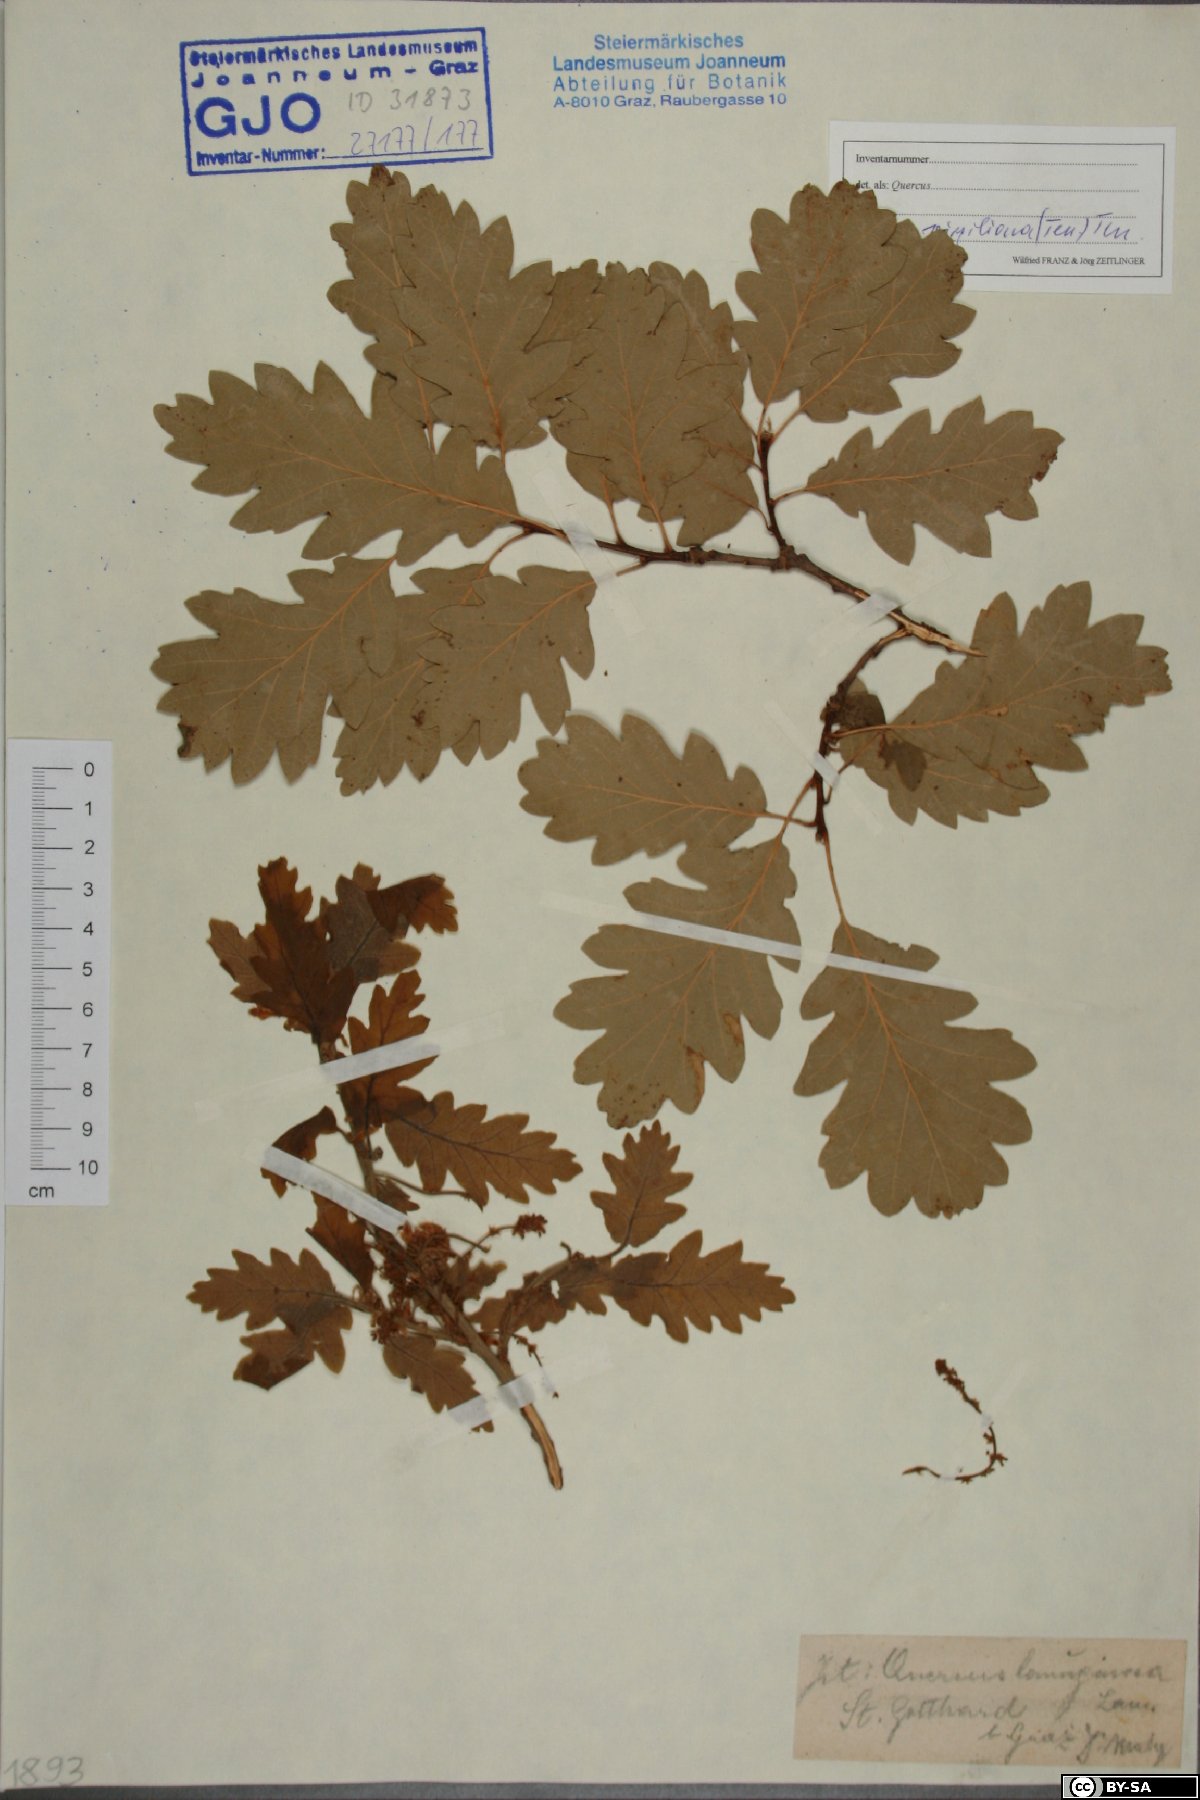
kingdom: Plantae
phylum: Tracheophyta
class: Magnoliopsida
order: Fagales
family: Fagaceae
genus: Quercus
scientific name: Quercus pubescens
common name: Downy oak
